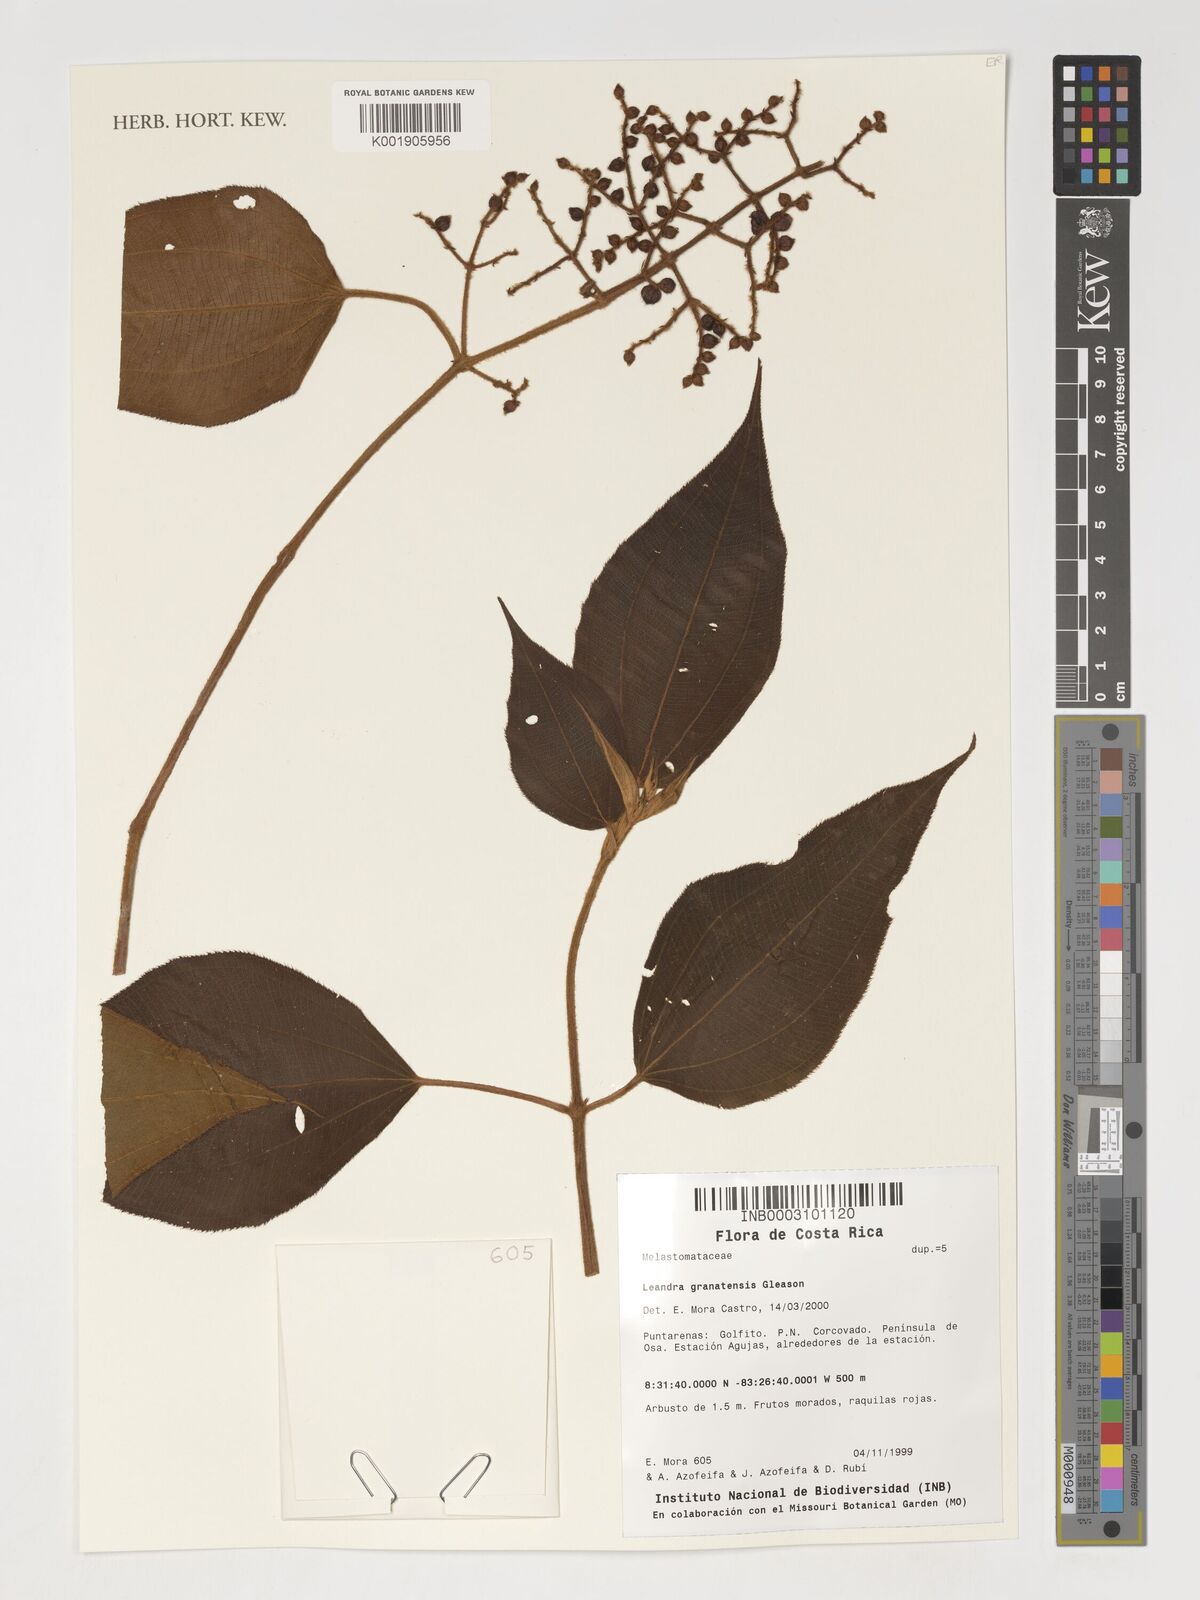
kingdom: Plantae
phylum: Tracheophyta
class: Magnoliopsida
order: Myrtales
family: Melastomataceae
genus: Miconia
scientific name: Miconia granatensis
